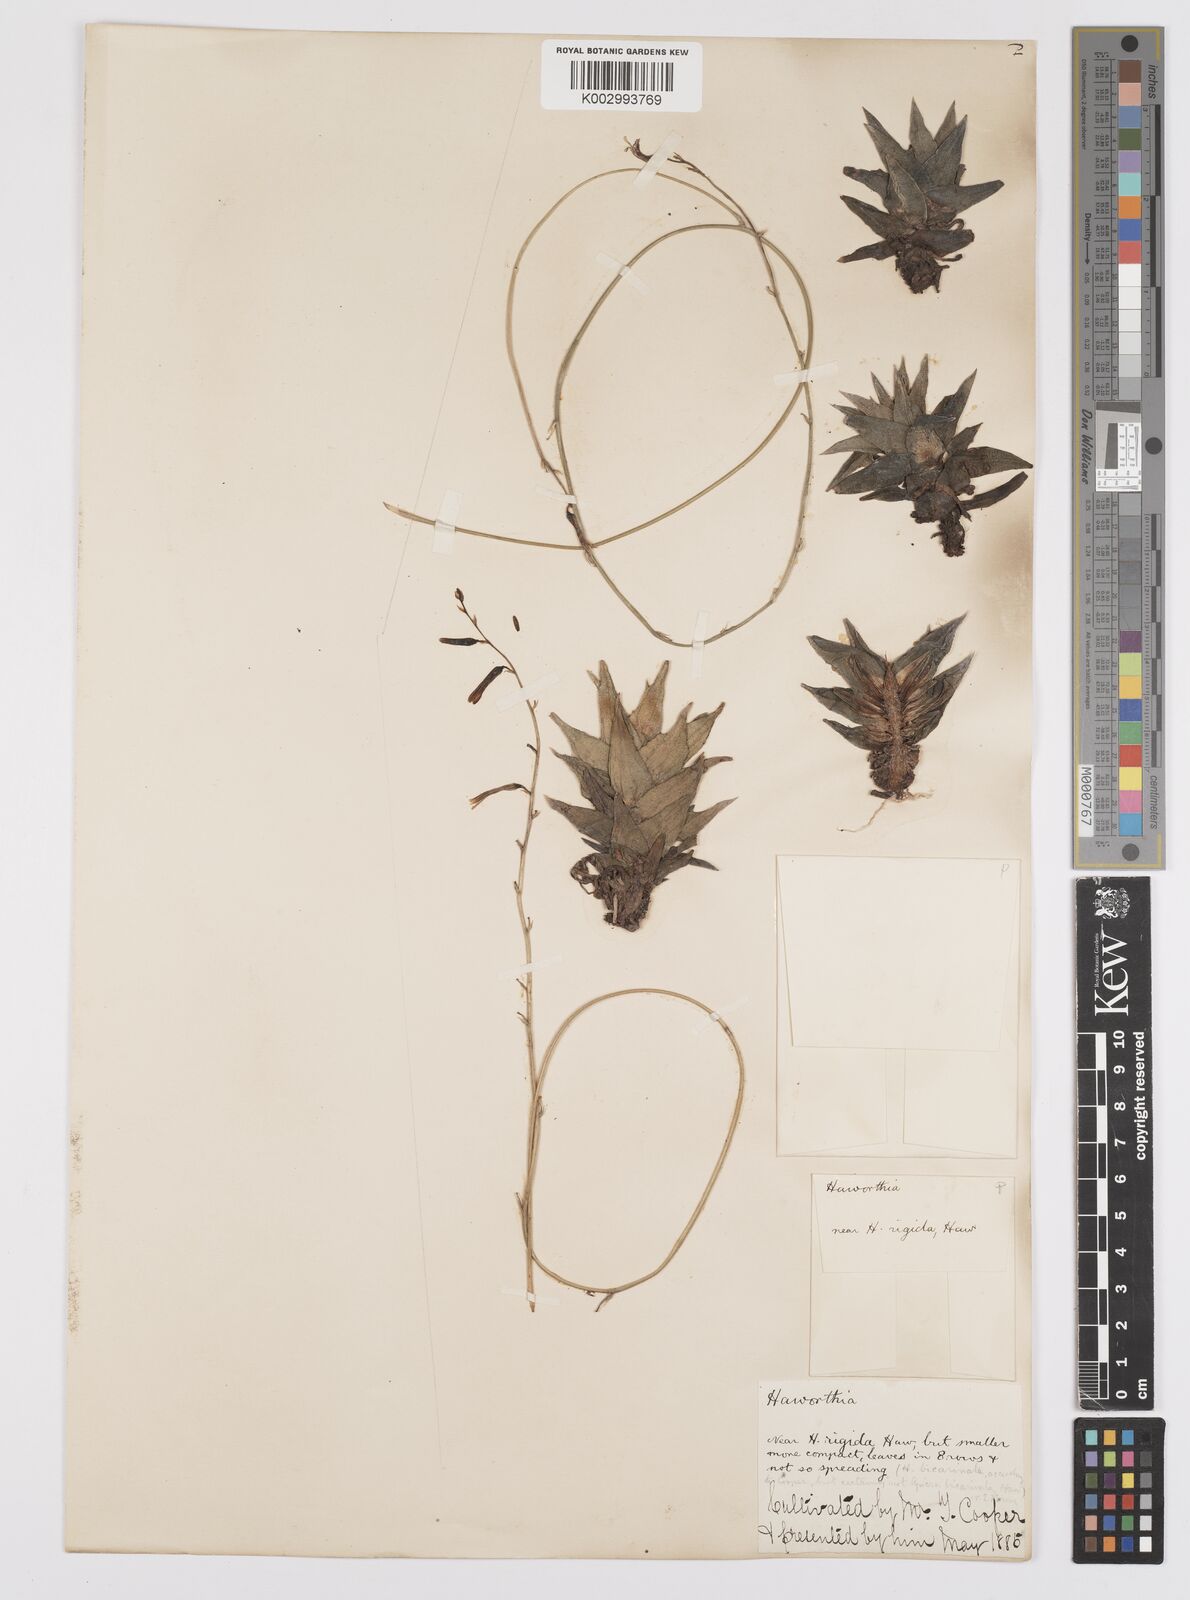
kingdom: Plantae
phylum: Tracheophyta
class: Liliopsida
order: Asparagales
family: Asphodelaceae
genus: Haworthiopsis
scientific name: Haworthiopsis tortuosa
